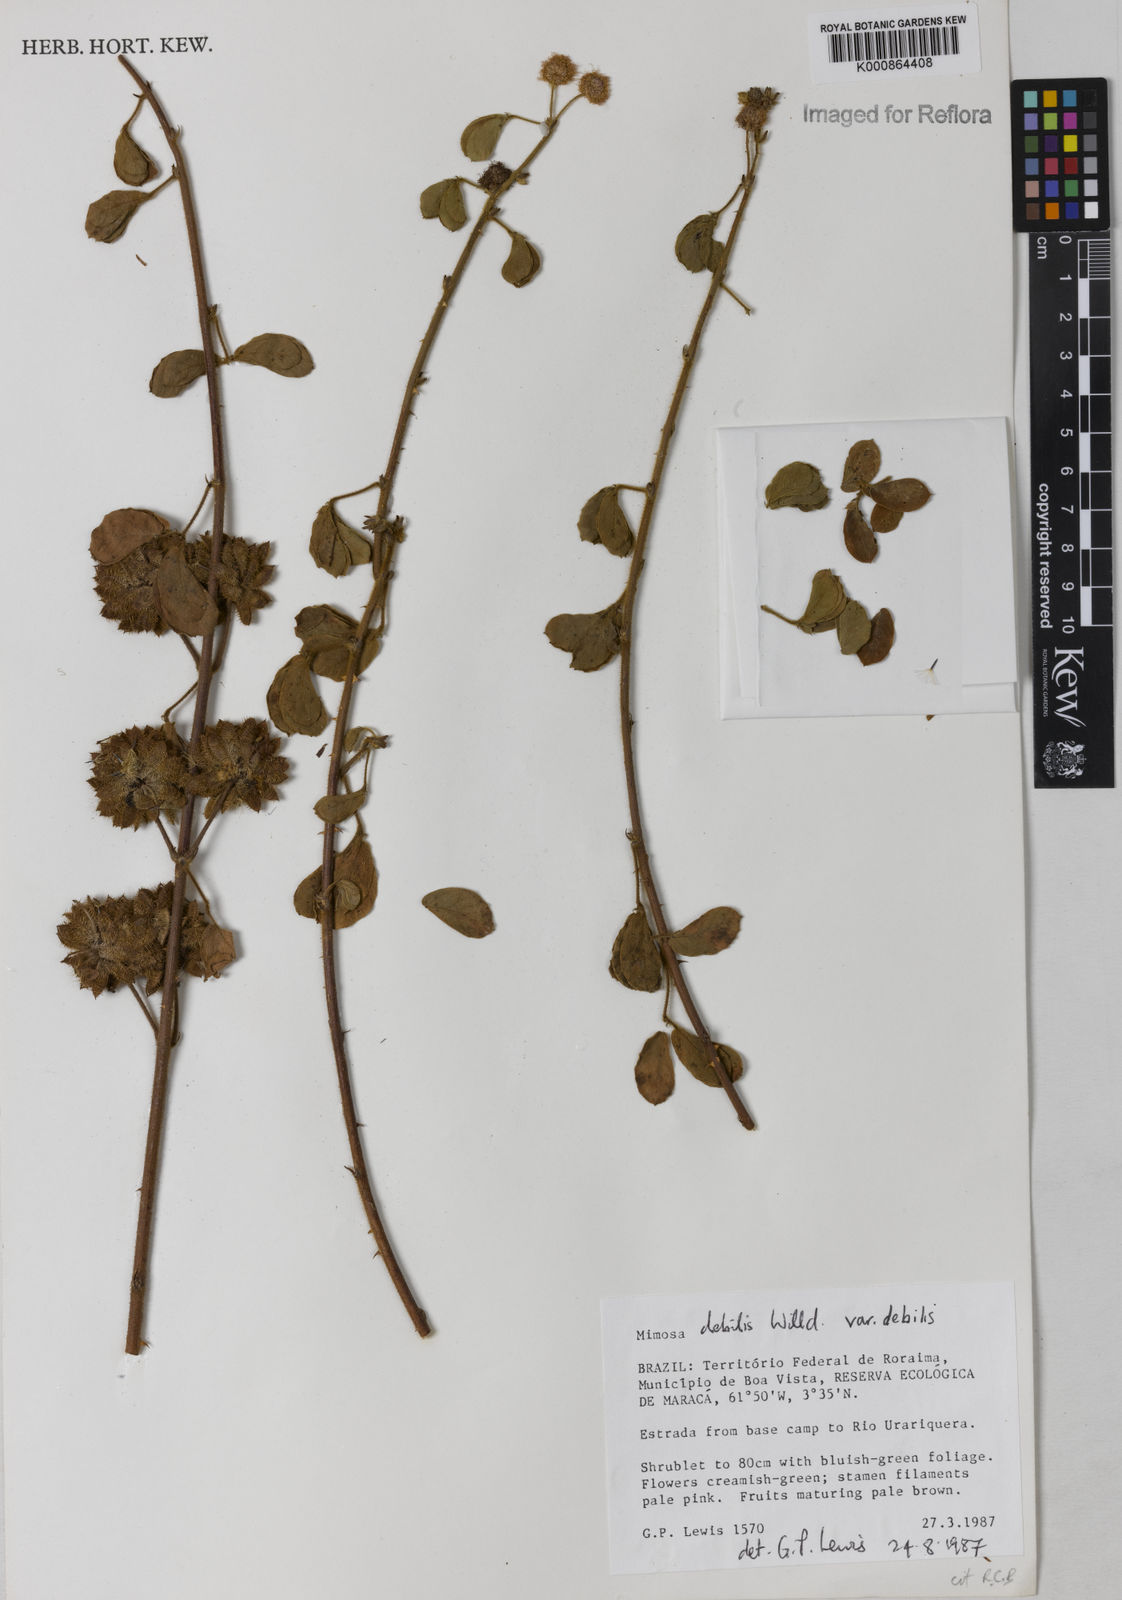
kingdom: Plantae
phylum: Tracheophyta
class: Magnoliopsida
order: Fabales
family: Fabaceae
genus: Mimosa
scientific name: Mimosa debilis
